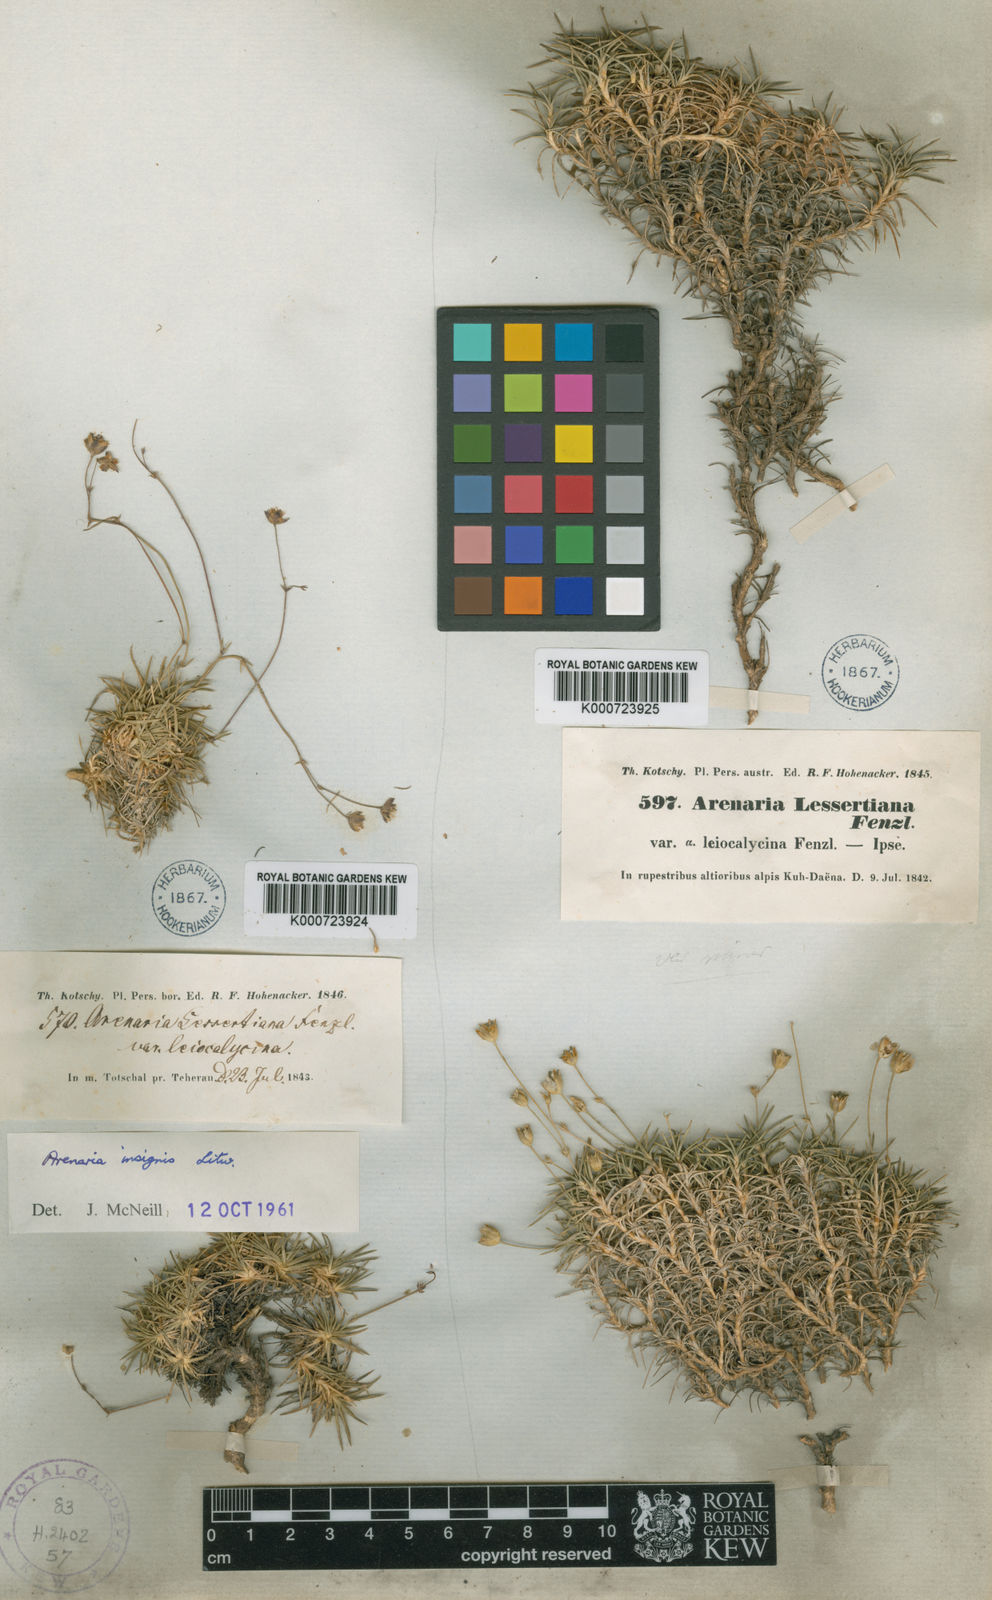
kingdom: Plantae
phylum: Tracheophyta
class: Magnoliopsida
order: Caryophyllales
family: Caryophyllaceae
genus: Eremogone
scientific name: Eremogone persica
